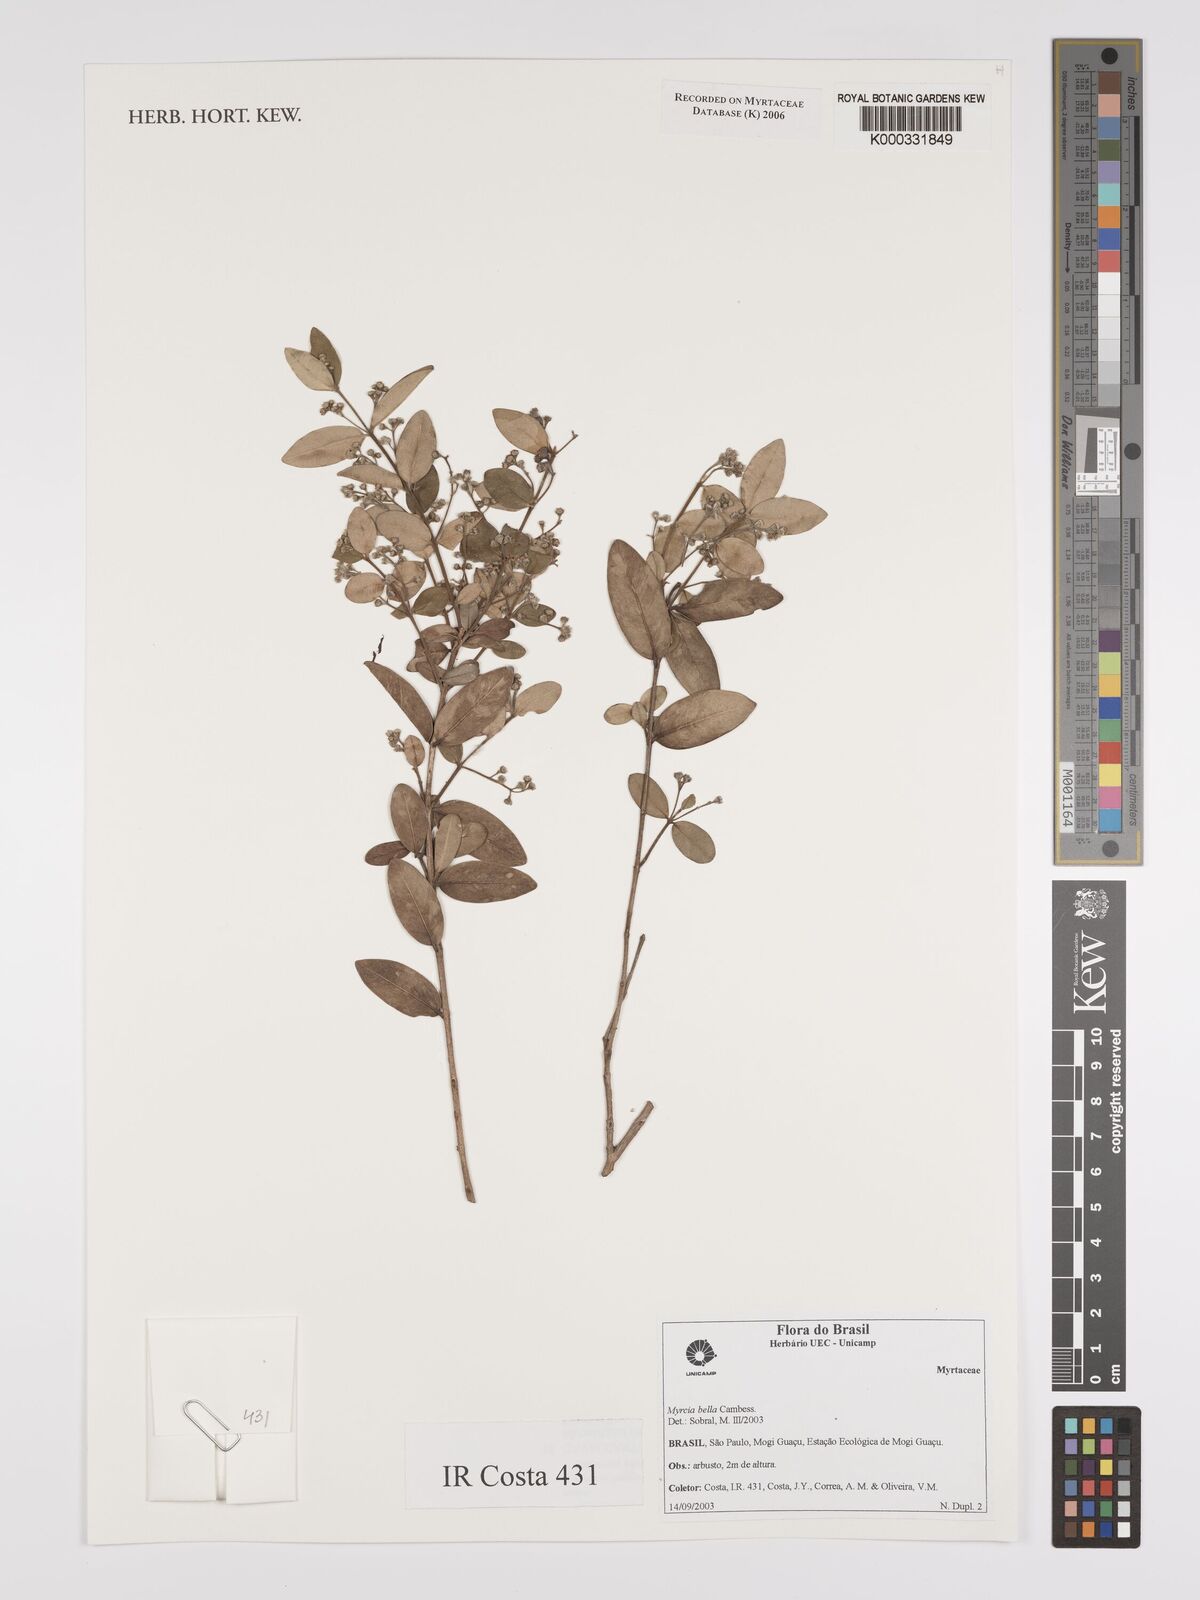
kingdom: Plantae
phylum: Tracheophyta
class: Magnoliopsida
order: Myrtales
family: Myrtaceae
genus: Myrcia
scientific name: Myrcia bella
